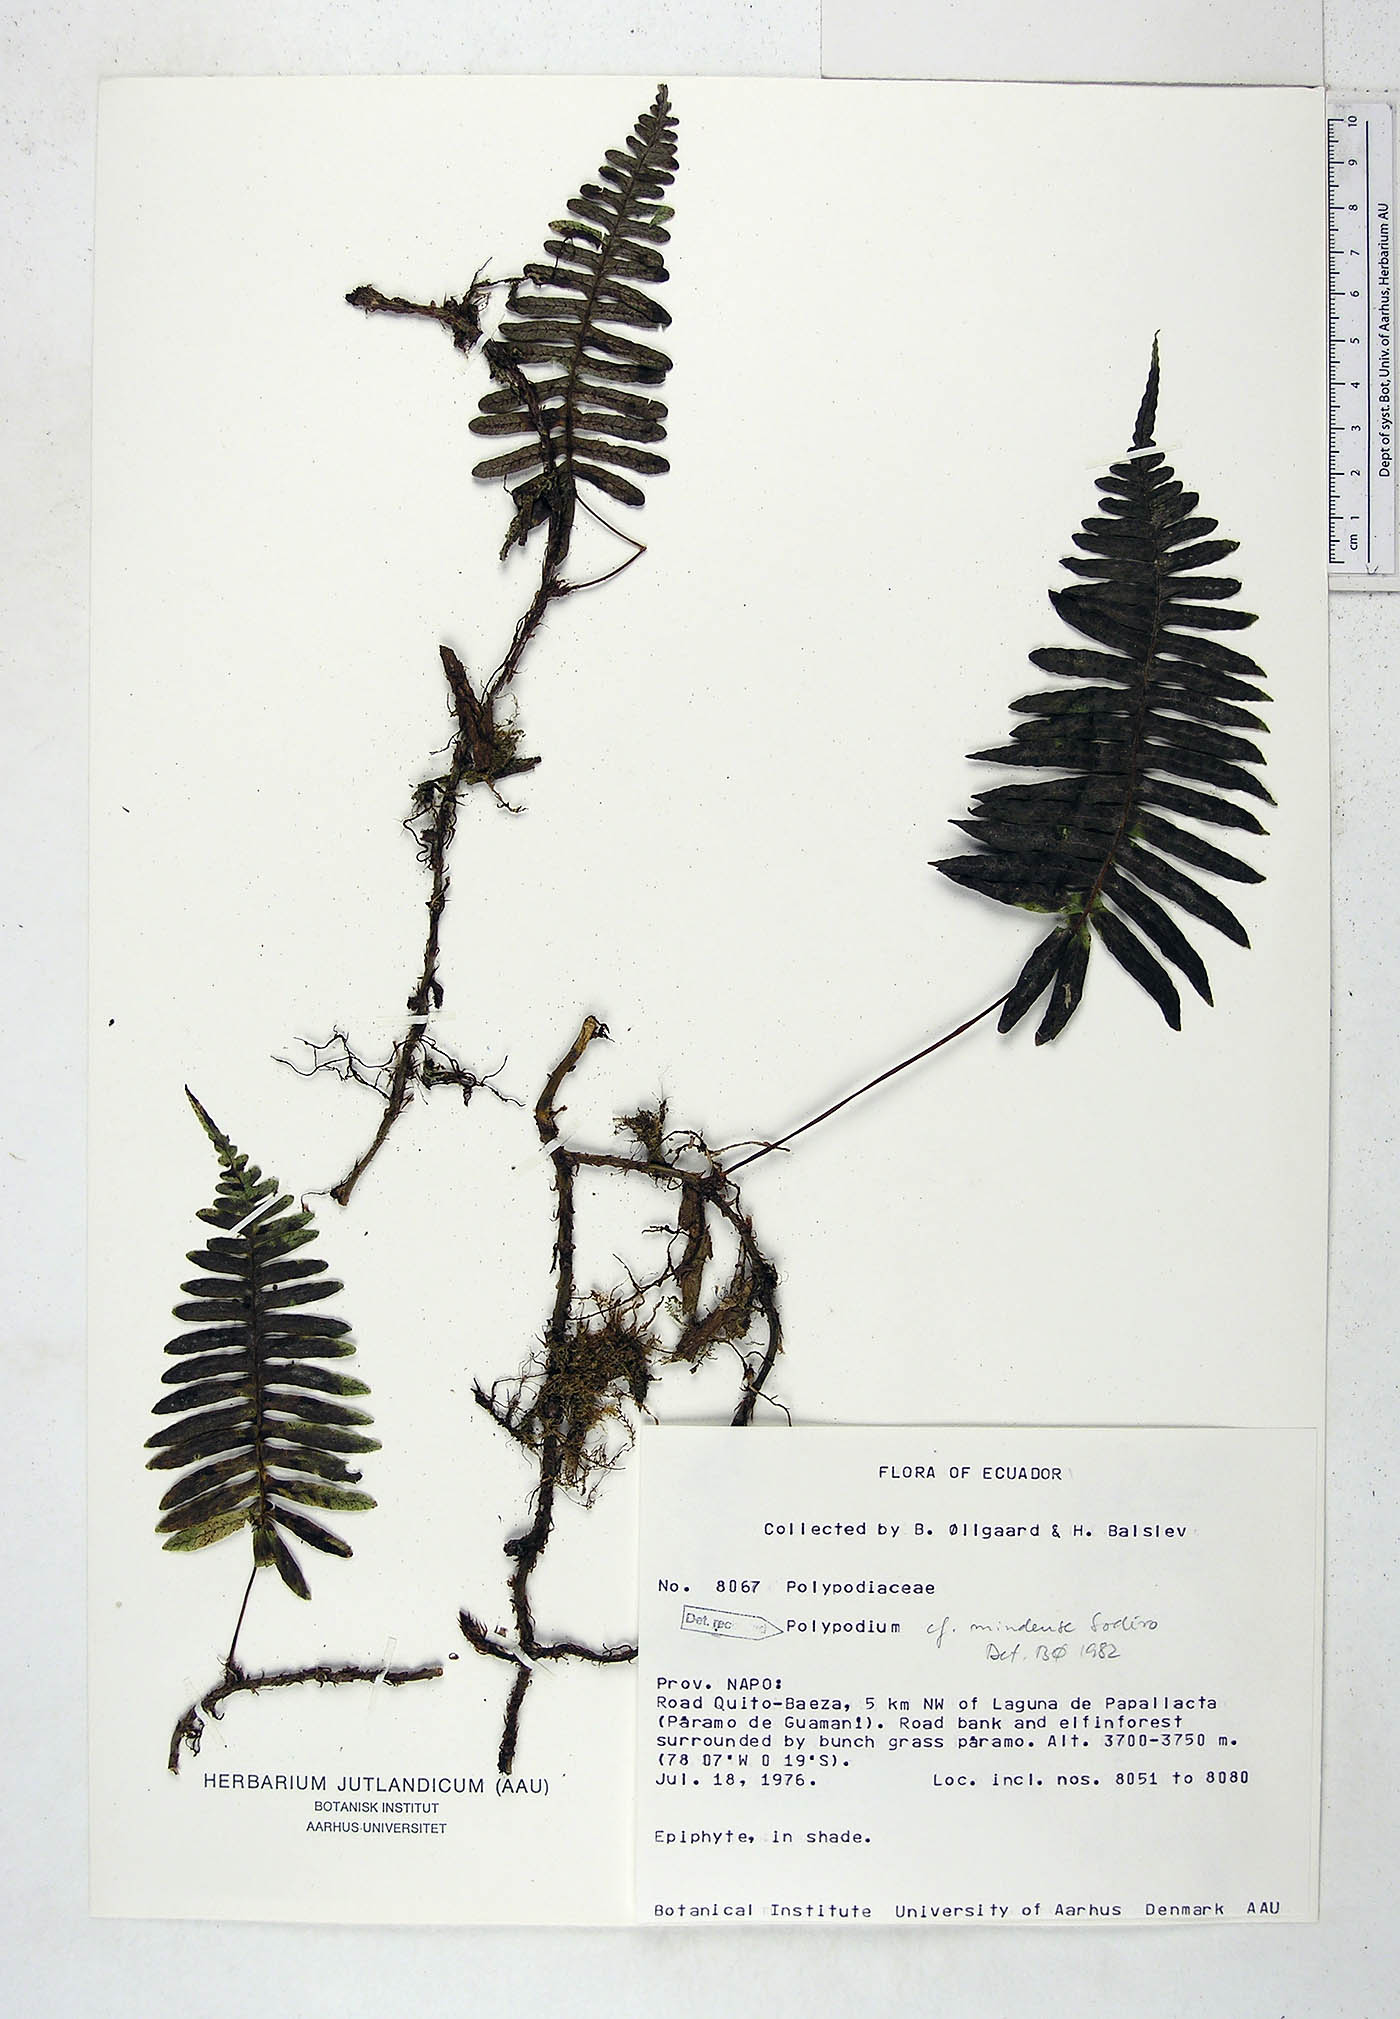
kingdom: Plantae
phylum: Tracheophyta
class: Polypodiopsida
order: Polypodiales
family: Polypodiaceae
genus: Serpocaulon
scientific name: Serpocaulon eleutherophlebium
